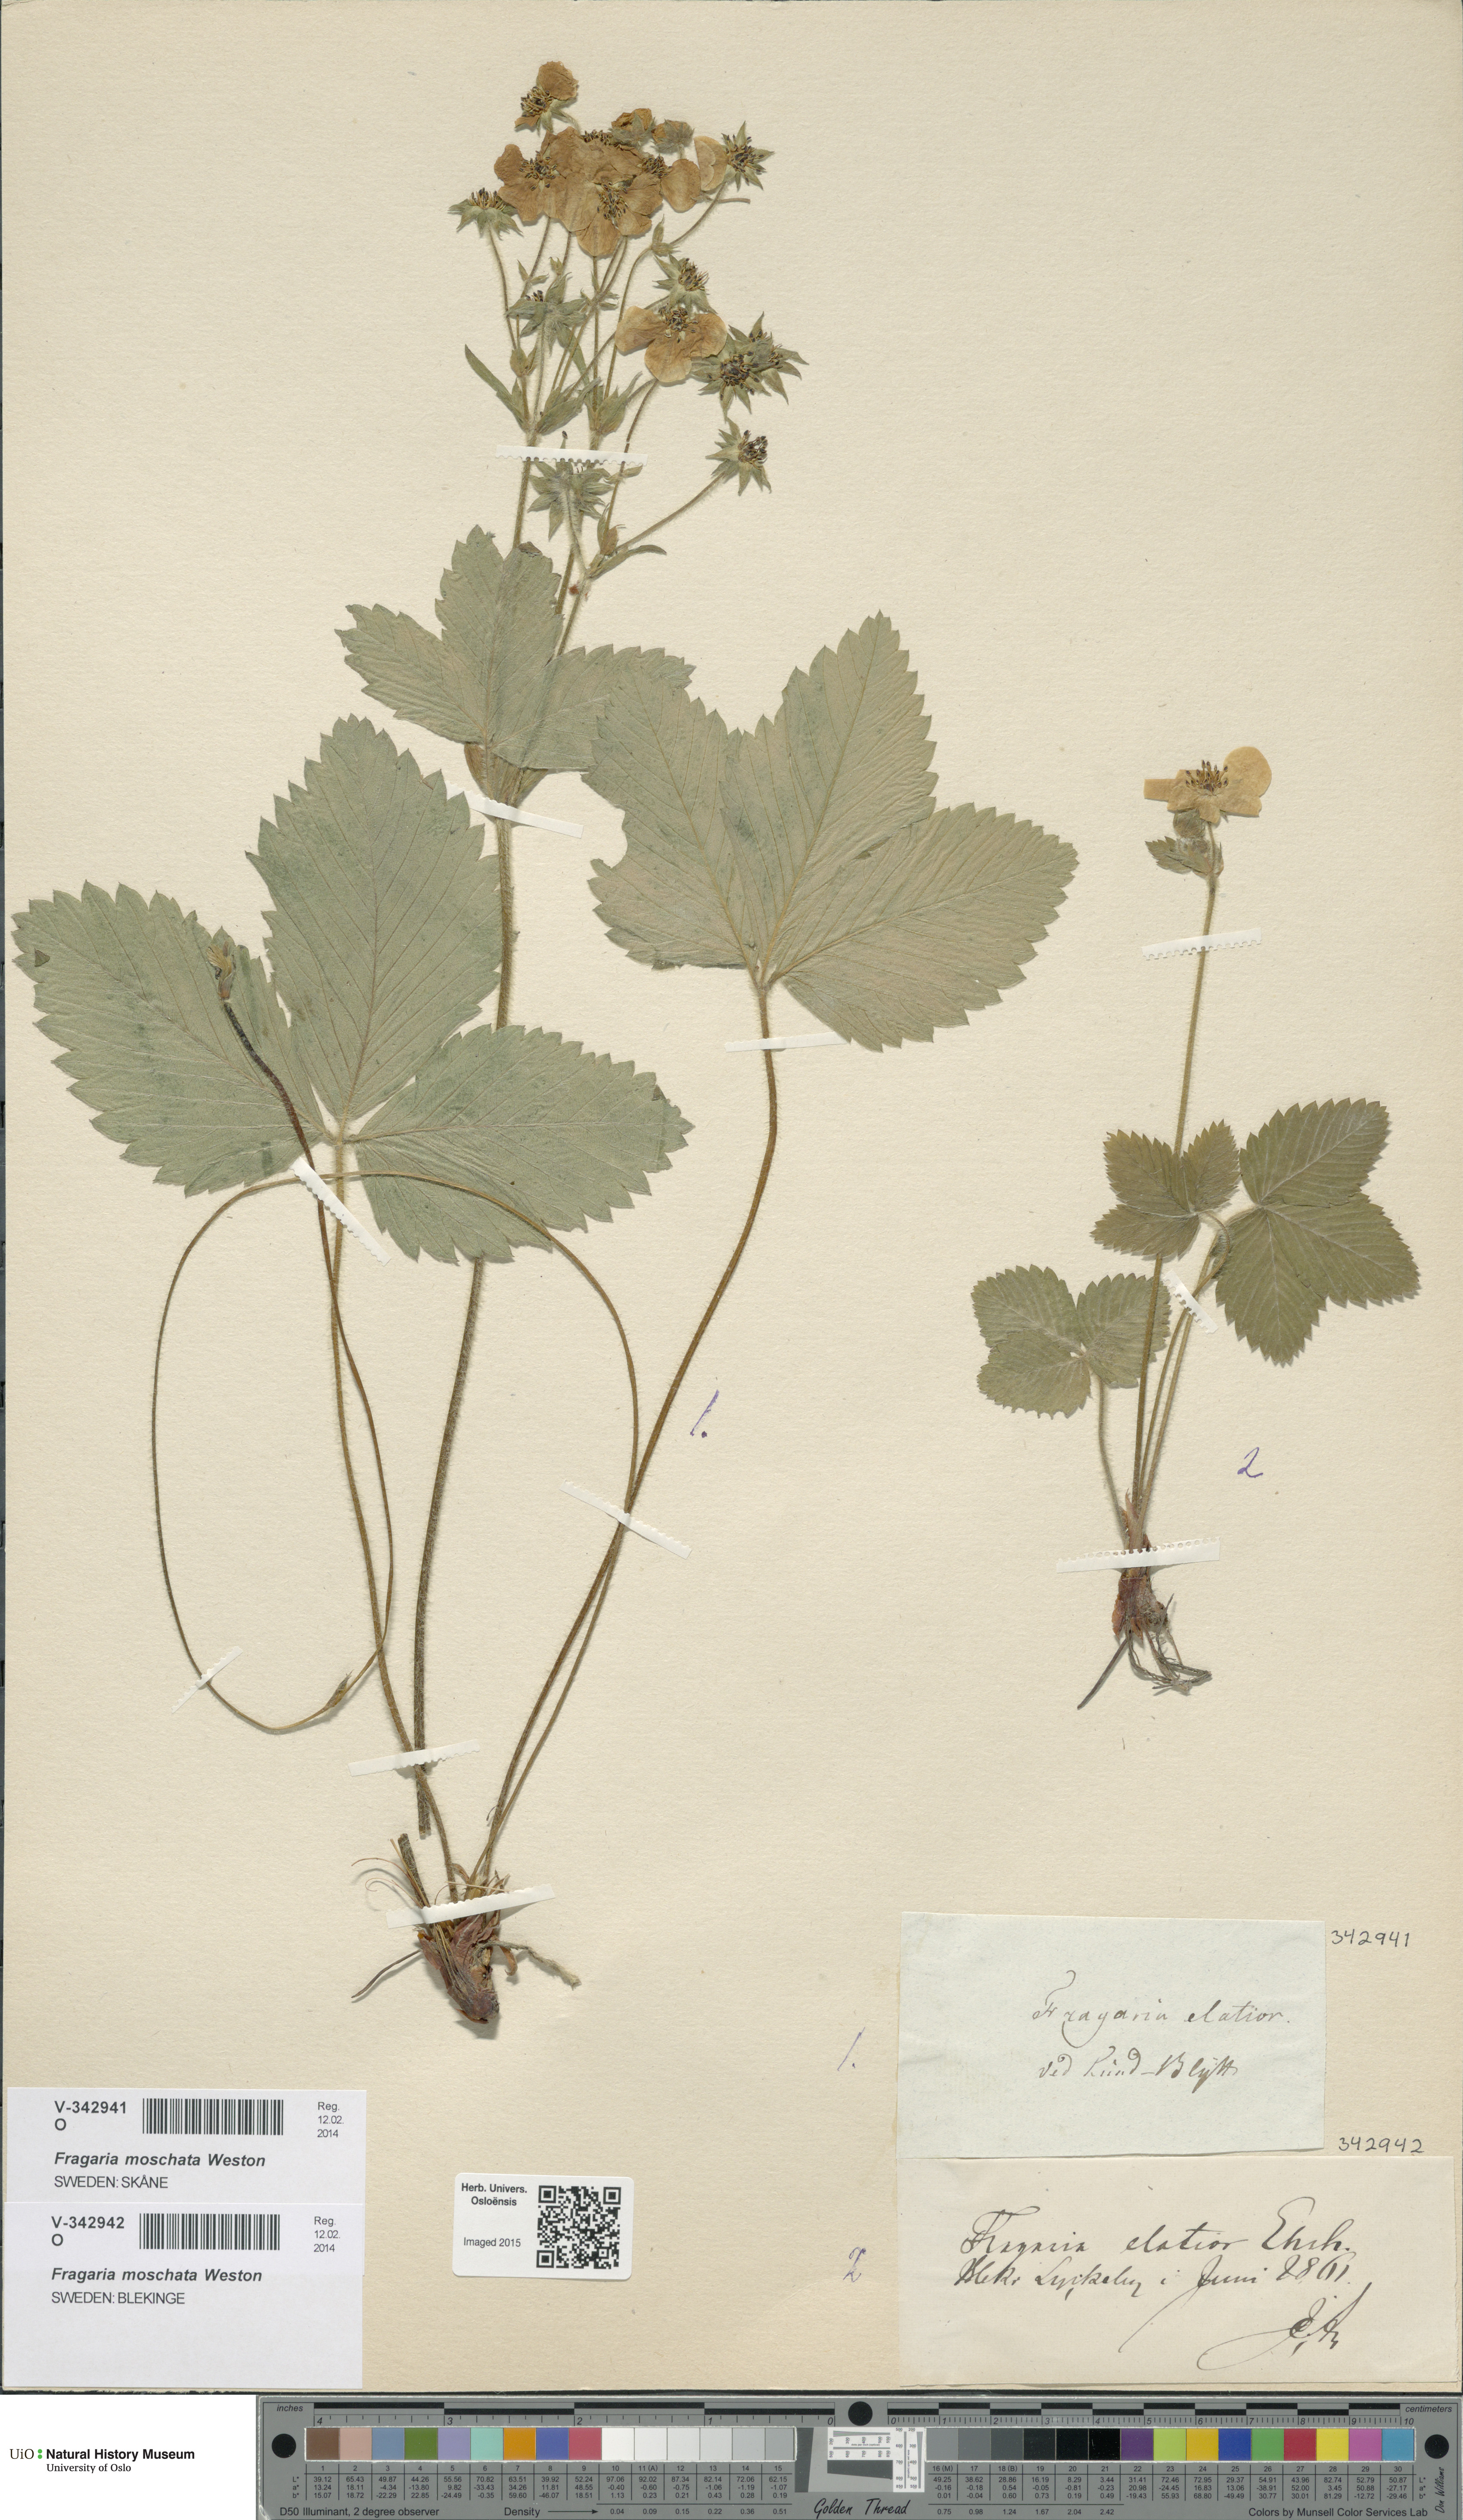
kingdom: Plantae
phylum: Tracheophyta
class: Magnoliopsida
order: Rosales
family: Rosaceae
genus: Fragaria
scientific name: Fragaria moschata
